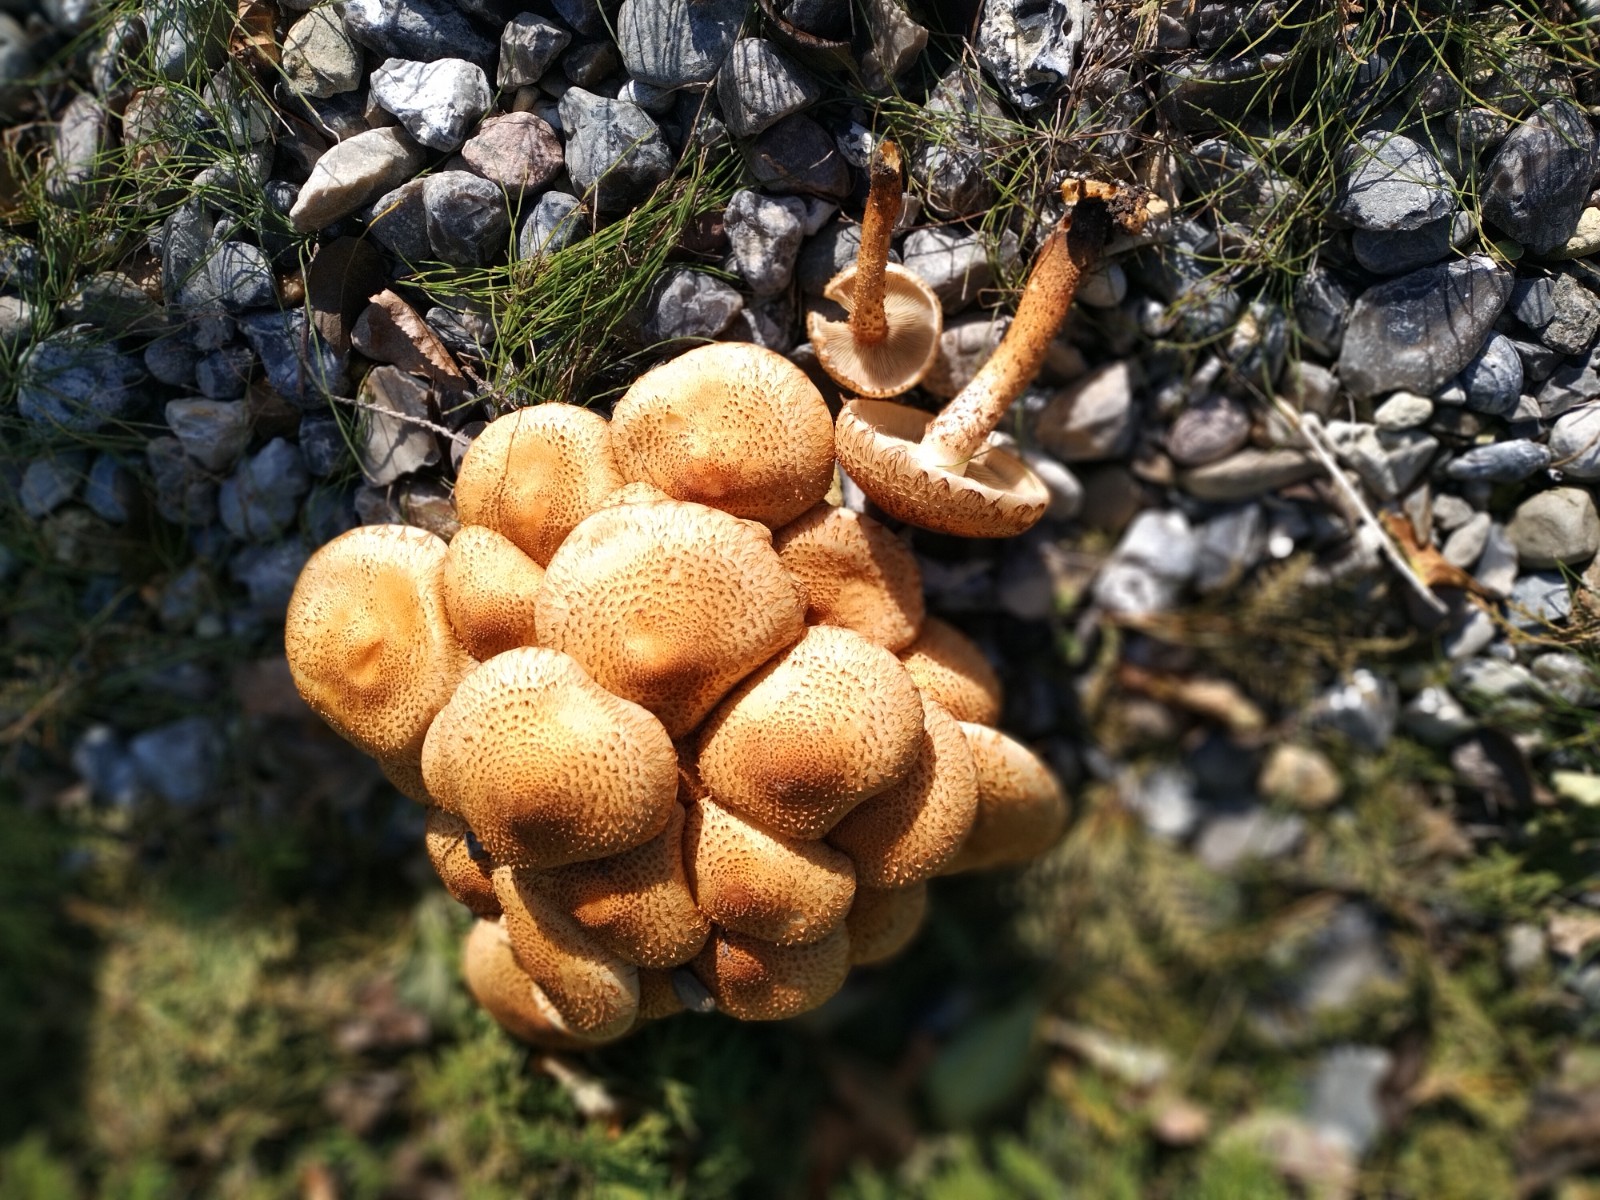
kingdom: Fungi
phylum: Basidiomycota
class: Agaricomycetes
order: Agaricales
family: Strophariaceae
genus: Pholiota
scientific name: Pholiota squarrosa
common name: krumskællet skælhat
